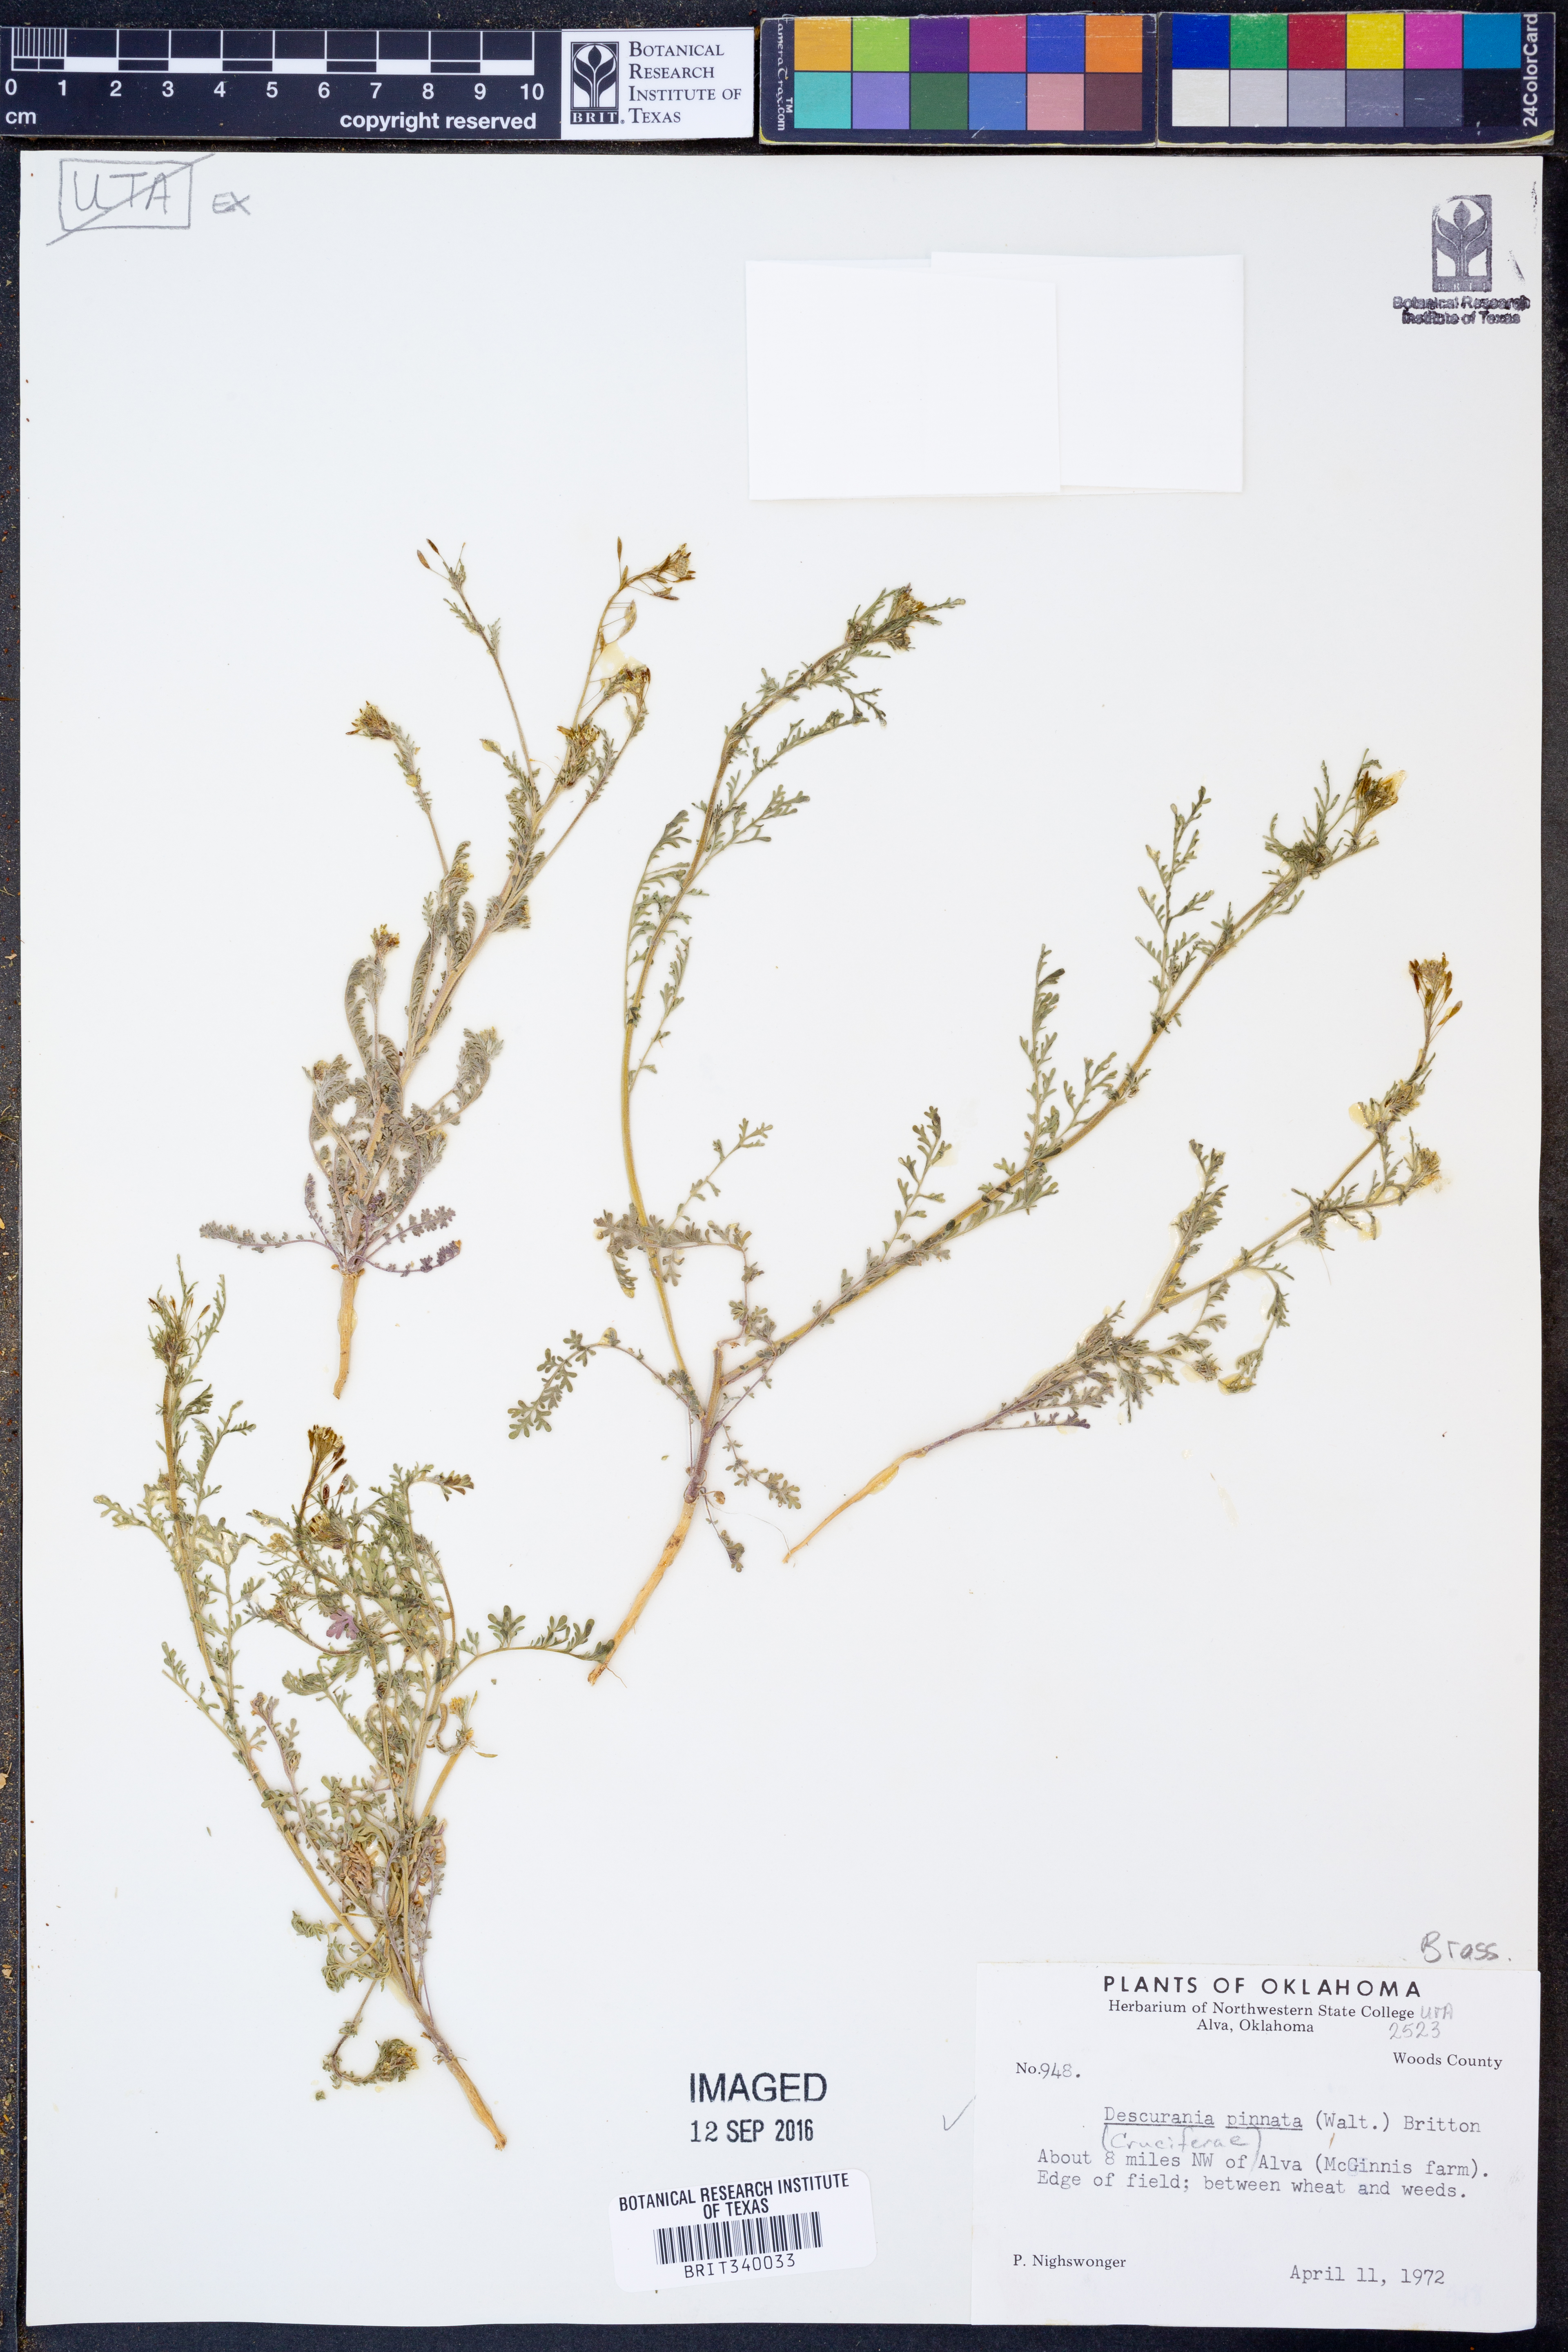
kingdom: Plantae
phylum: Tracheophyta
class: Magnoliopsida
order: Brassicales
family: Brassicaceae
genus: Descurainia
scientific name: Descurainia pinnata
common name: Western tansy mustard
